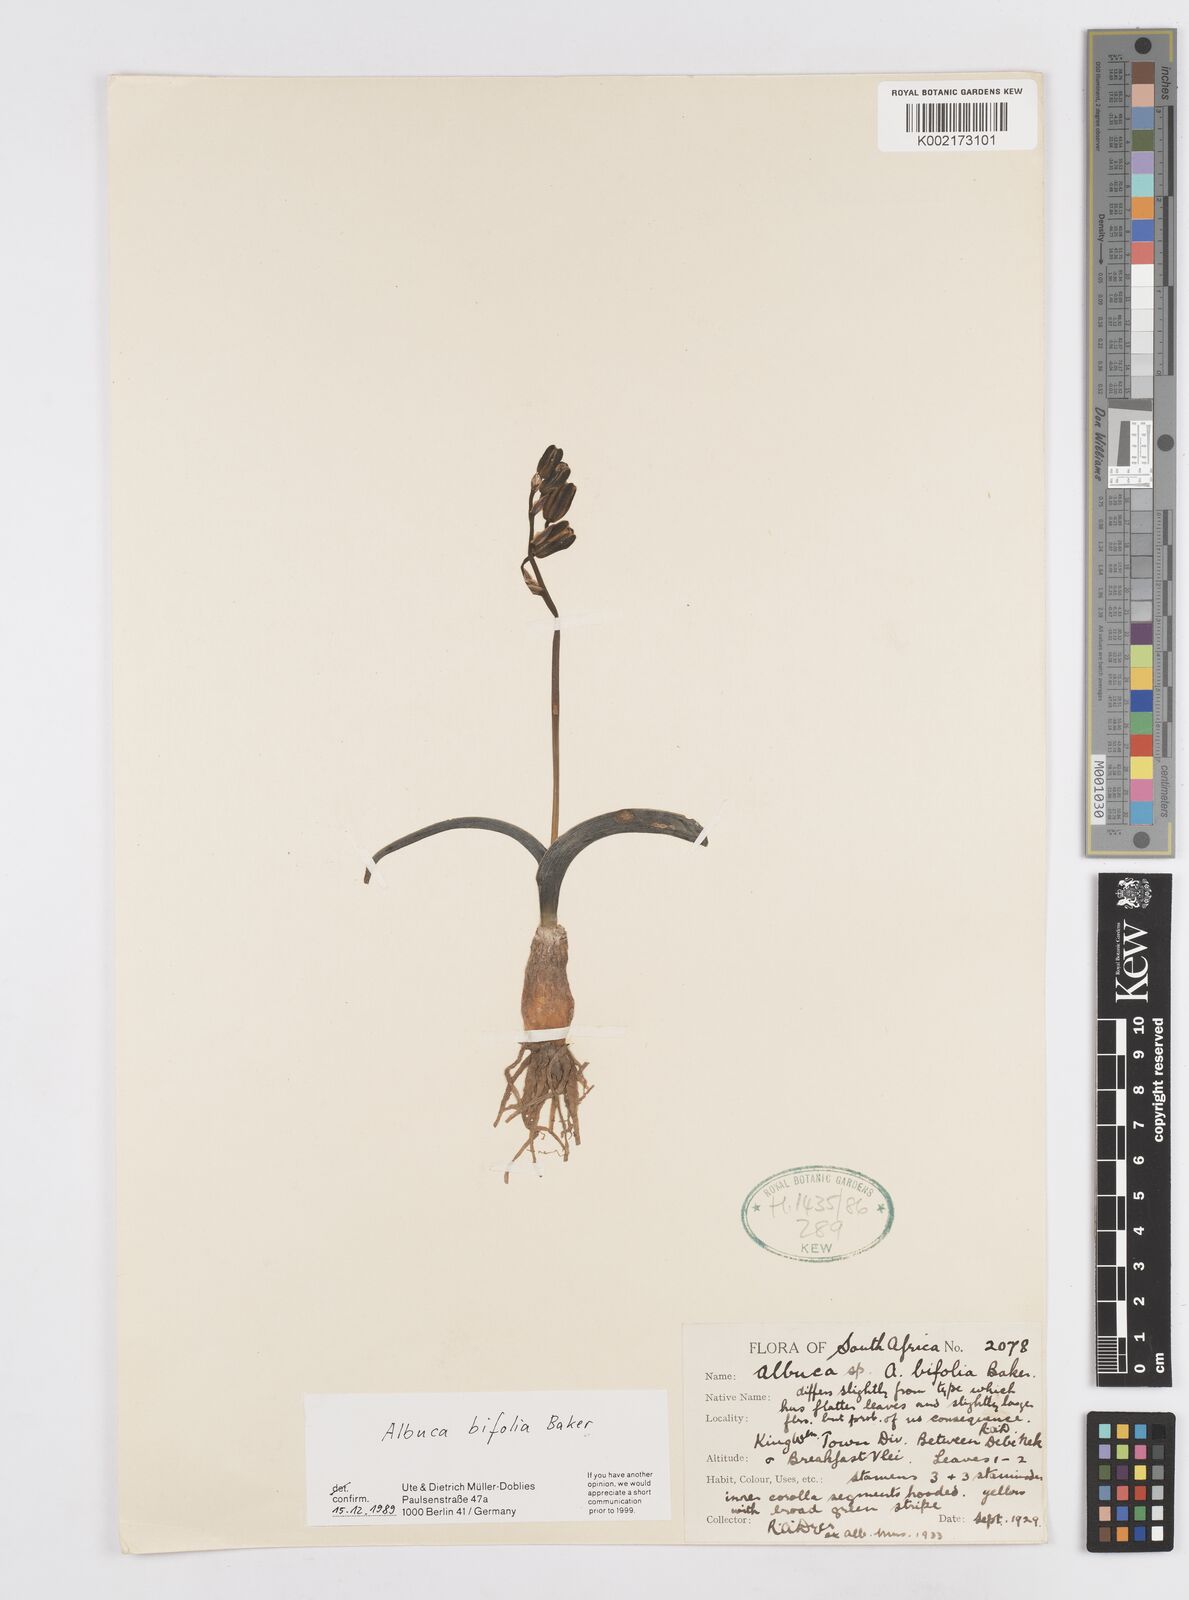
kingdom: Plantae
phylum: Tracheophyta
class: Liliopsida
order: Asparagales
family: Asparagaceae
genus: Albuca
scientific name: Albuca bifolia
